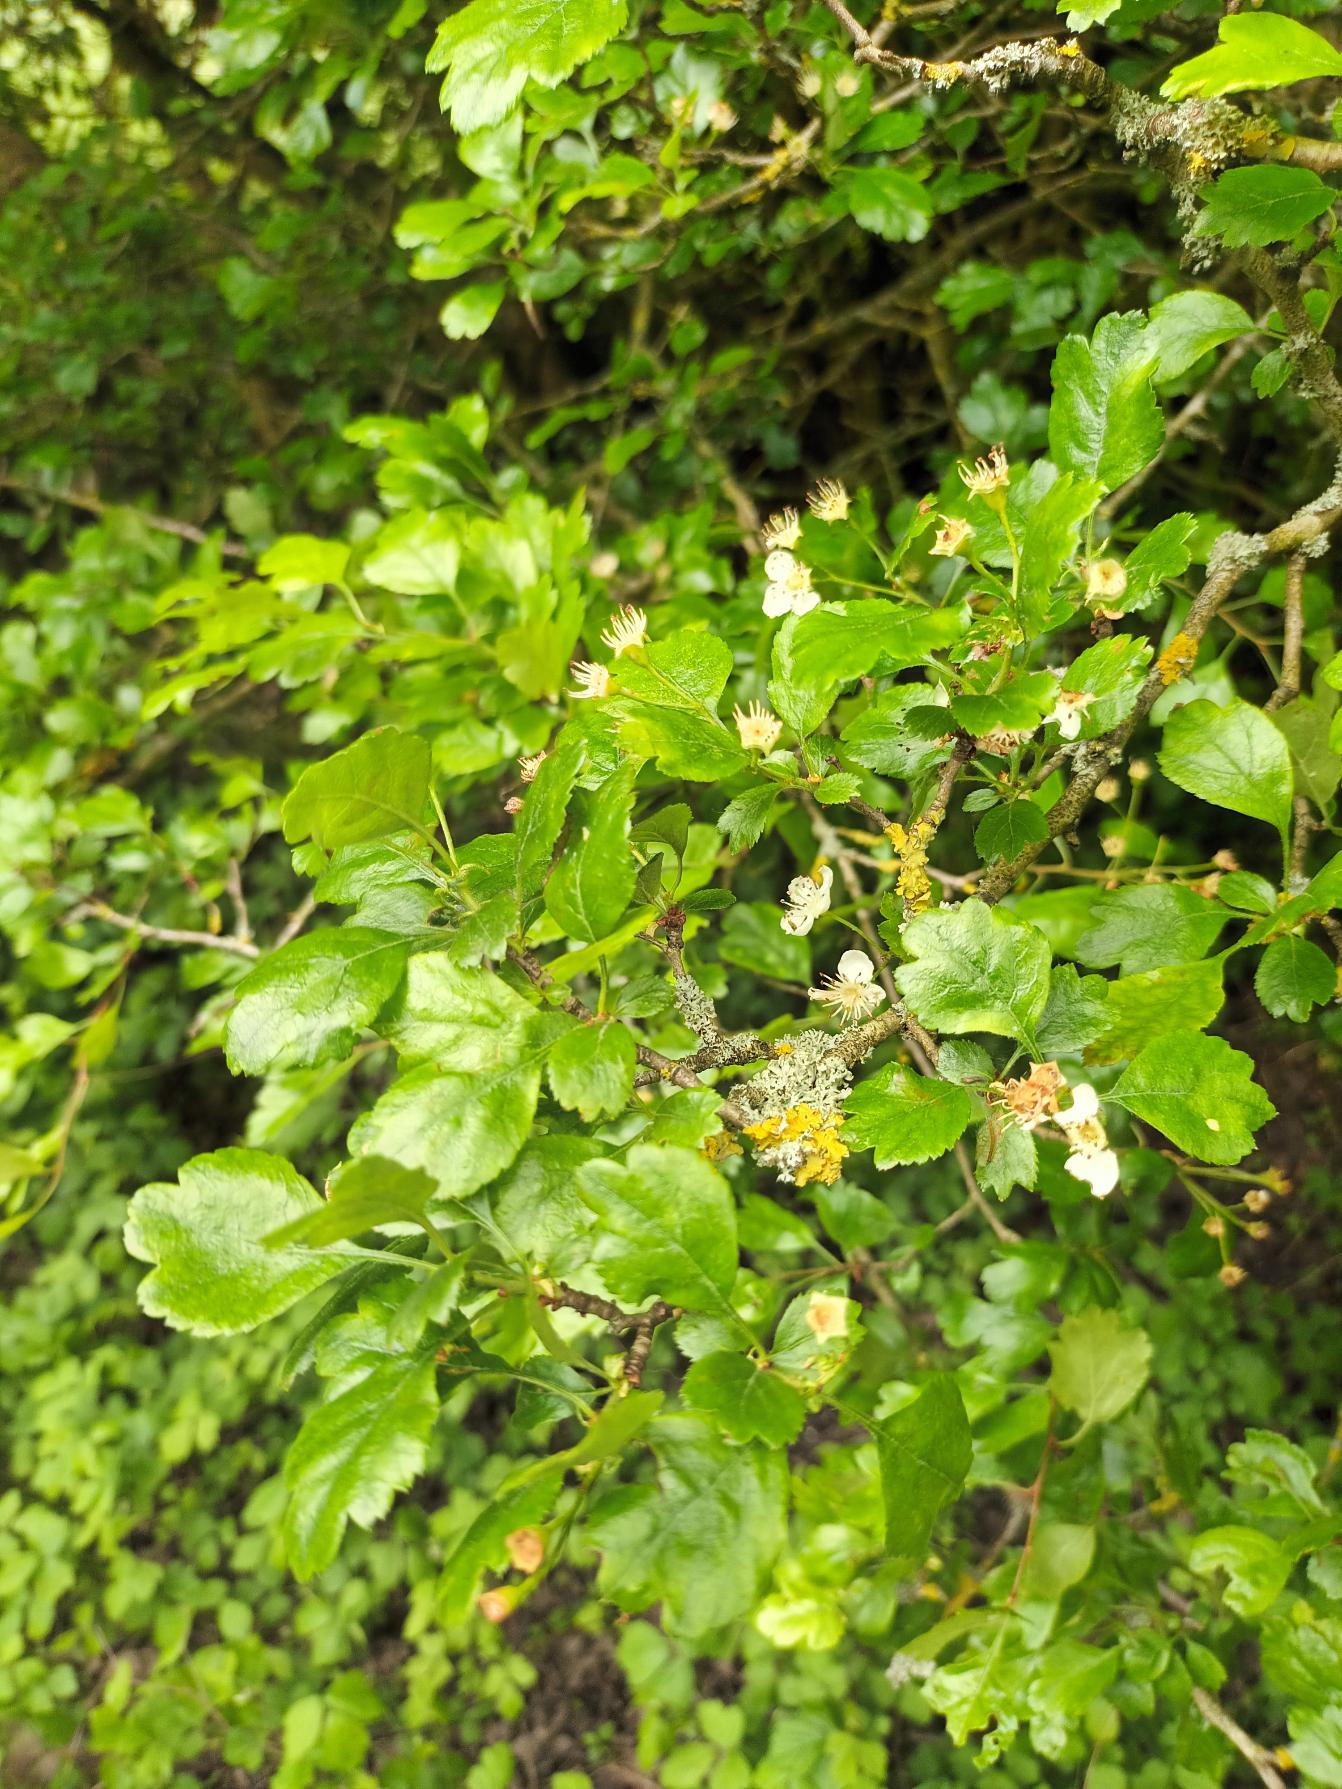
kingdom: Plantae
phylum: Tracheophyta
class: Magnoliopsida
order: Rosales
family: Rosaceae
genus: Crataegus
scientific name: Crataegus laevigata
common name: Almindelig hvidtjørn
